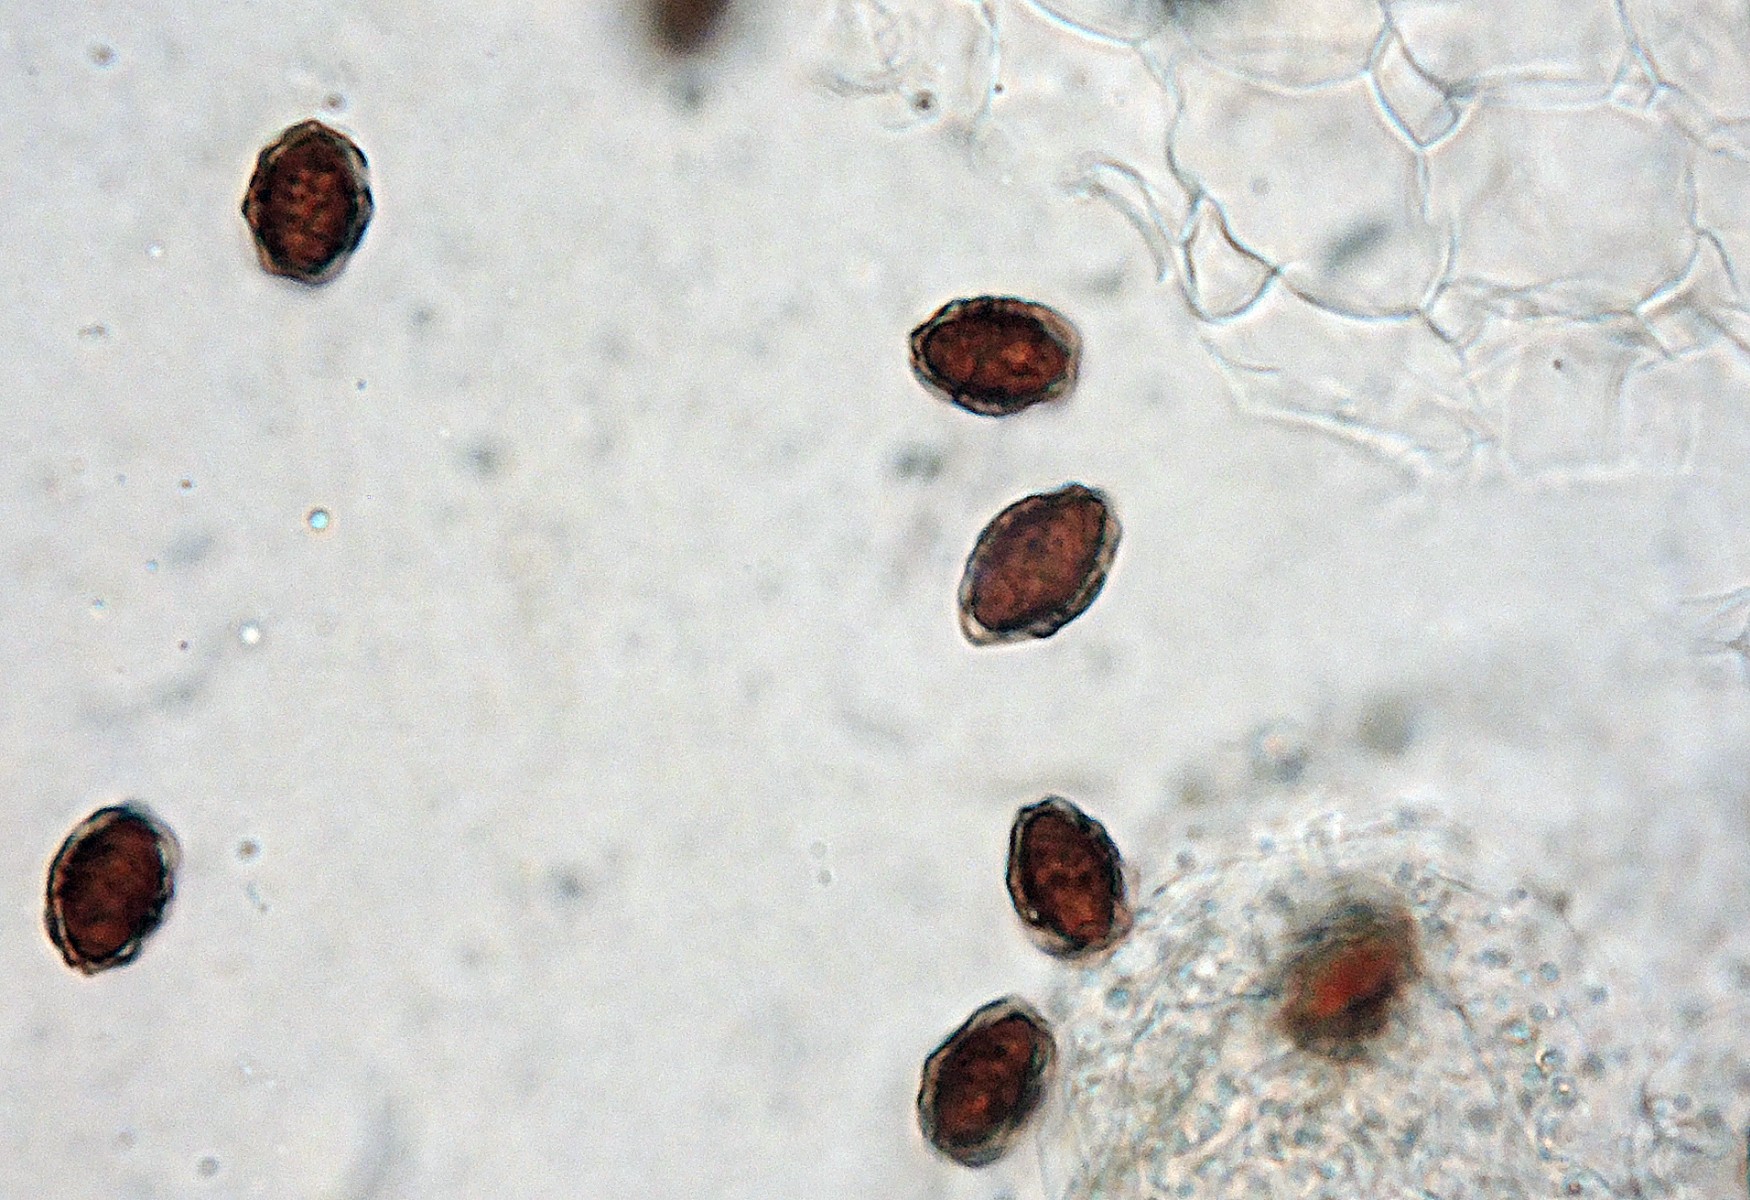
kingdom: Fungi
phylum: Basidiomycota
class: Agaricomycetes
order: Agaricales
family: Psathyrellaceae
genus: Coprinopsis
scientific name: Coprinopsis
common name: blækhat
